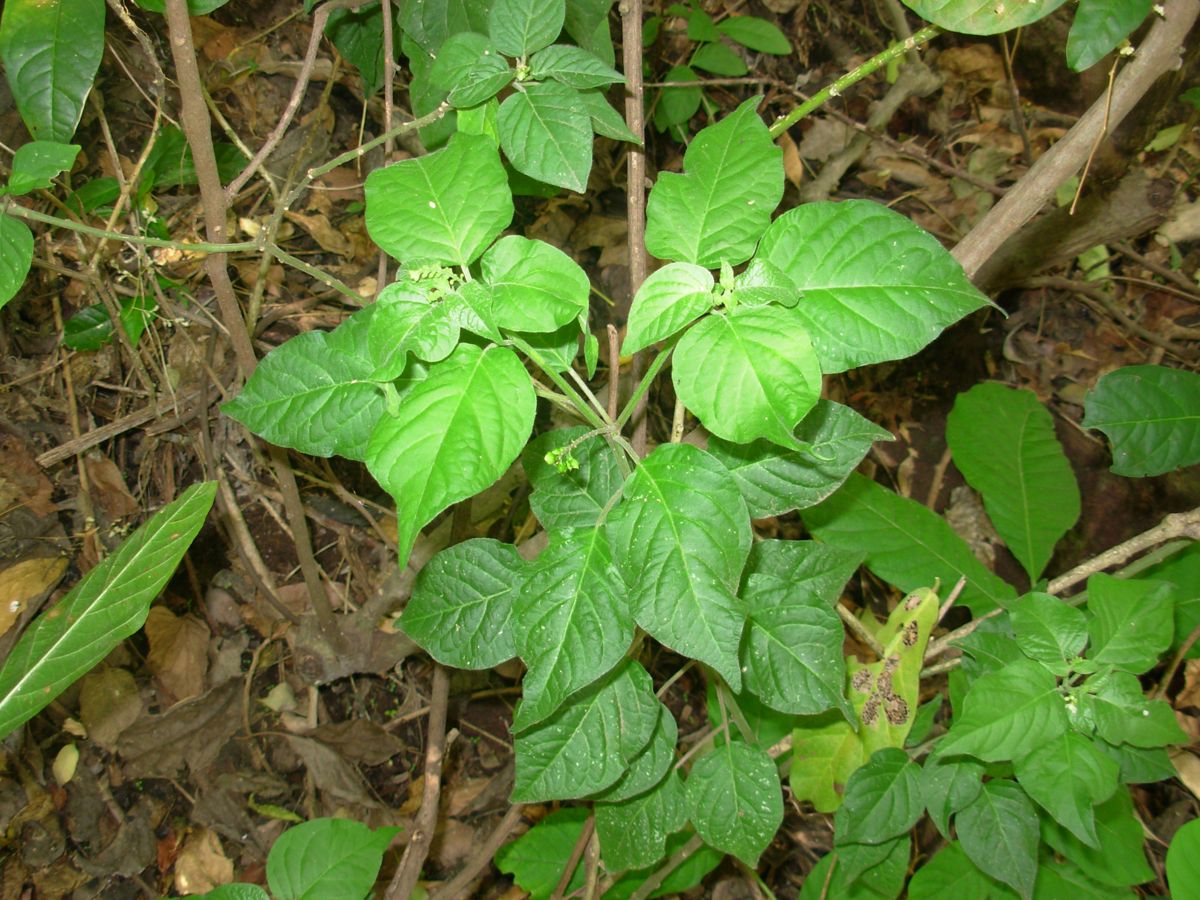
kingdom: Plantae
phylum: Tracheophyta
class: Magnoliopsida
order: Caryophyllales
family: Phytolaccaceae
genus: Rivina
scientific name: Rivina humilis
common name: Rougeplant
